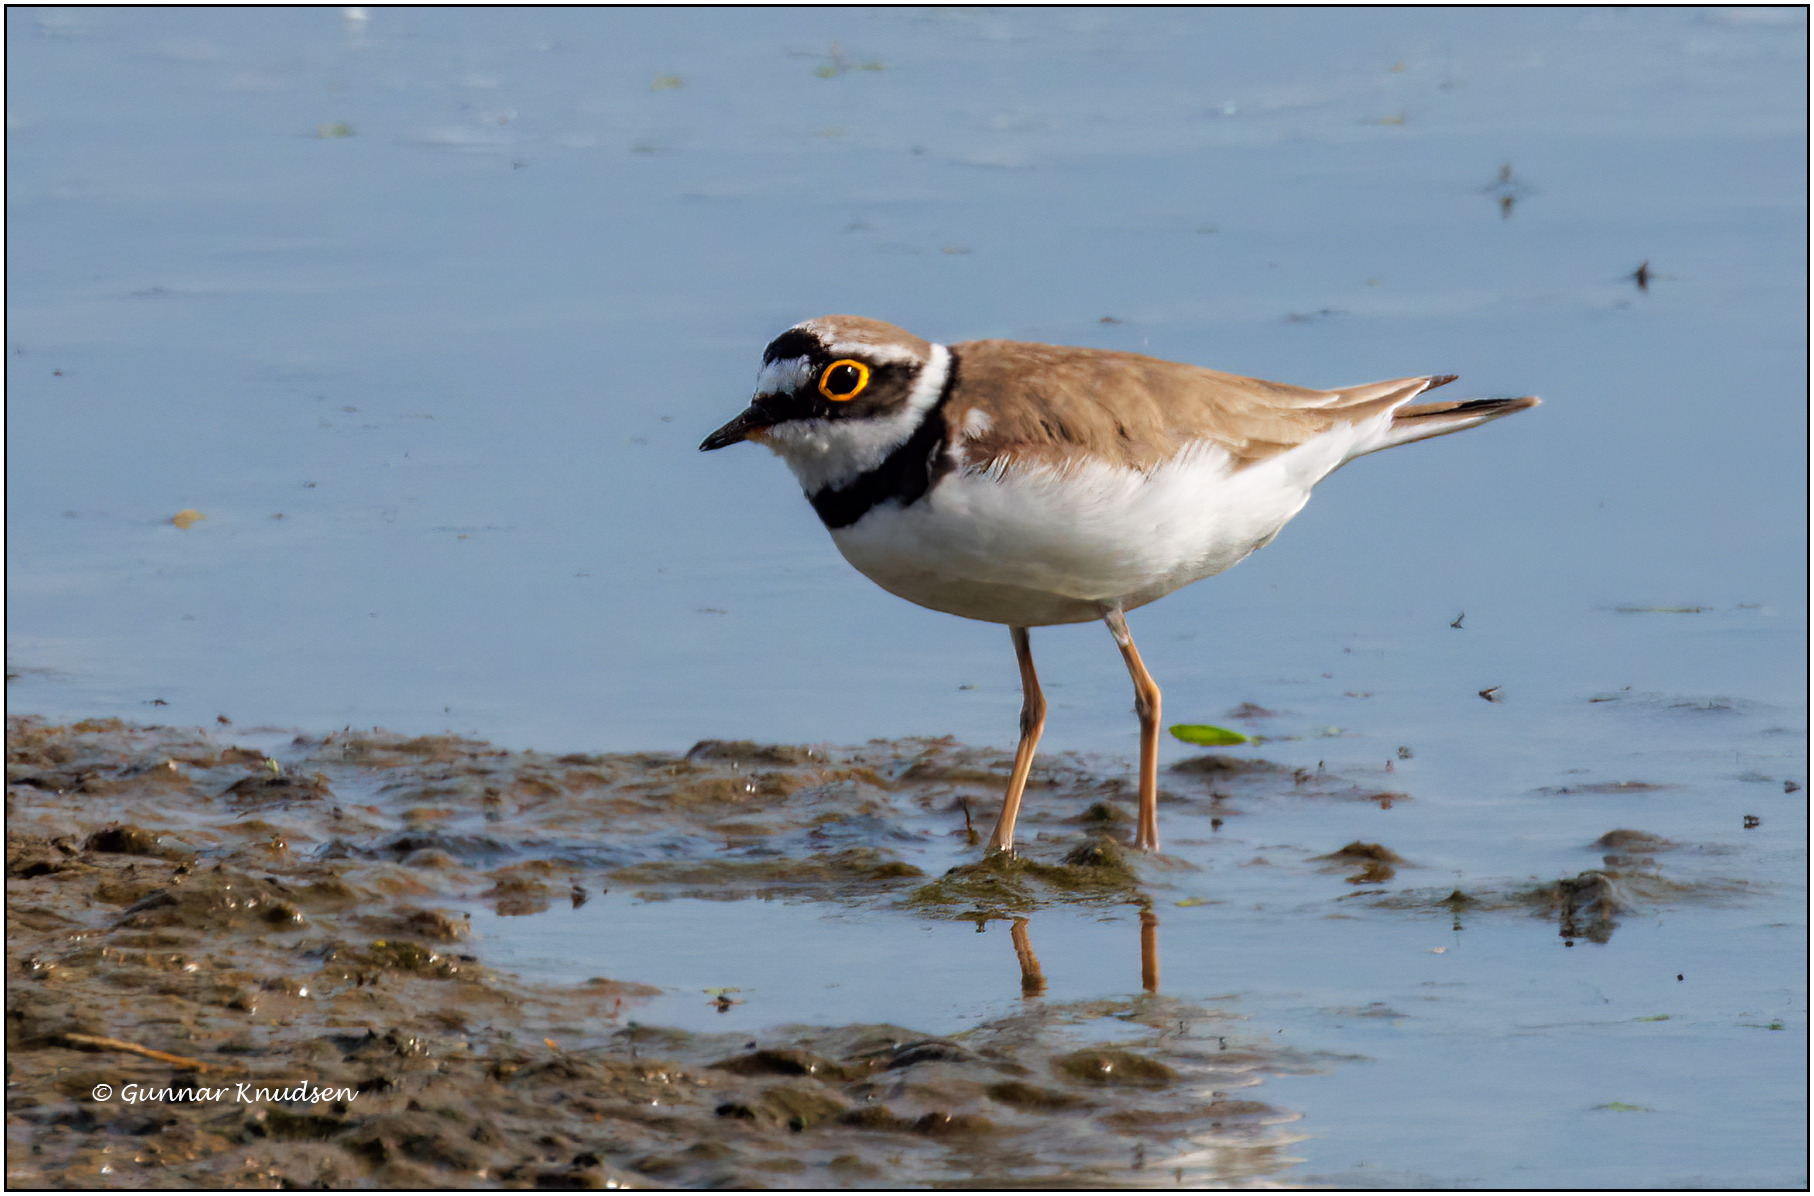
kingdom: Animalia
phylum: Chordata
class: Aves
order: Charadriiformes
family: Charadriidae
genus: Charadrius
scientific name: Charadrius dubius
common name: Lille præstekrave
